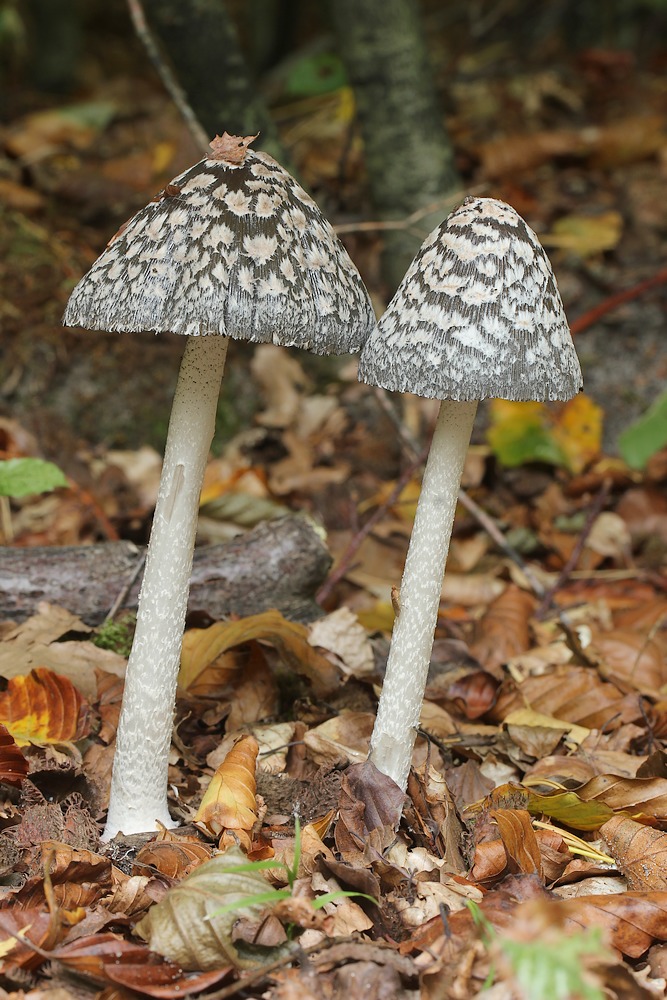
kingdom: Fungi
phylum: Basidiomycota
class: Agaricomycetes
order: Agaricales
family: Psathyrellaceae
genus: Coprinopsis
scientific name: Coprinopsis picacea
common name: skade-blækhat
